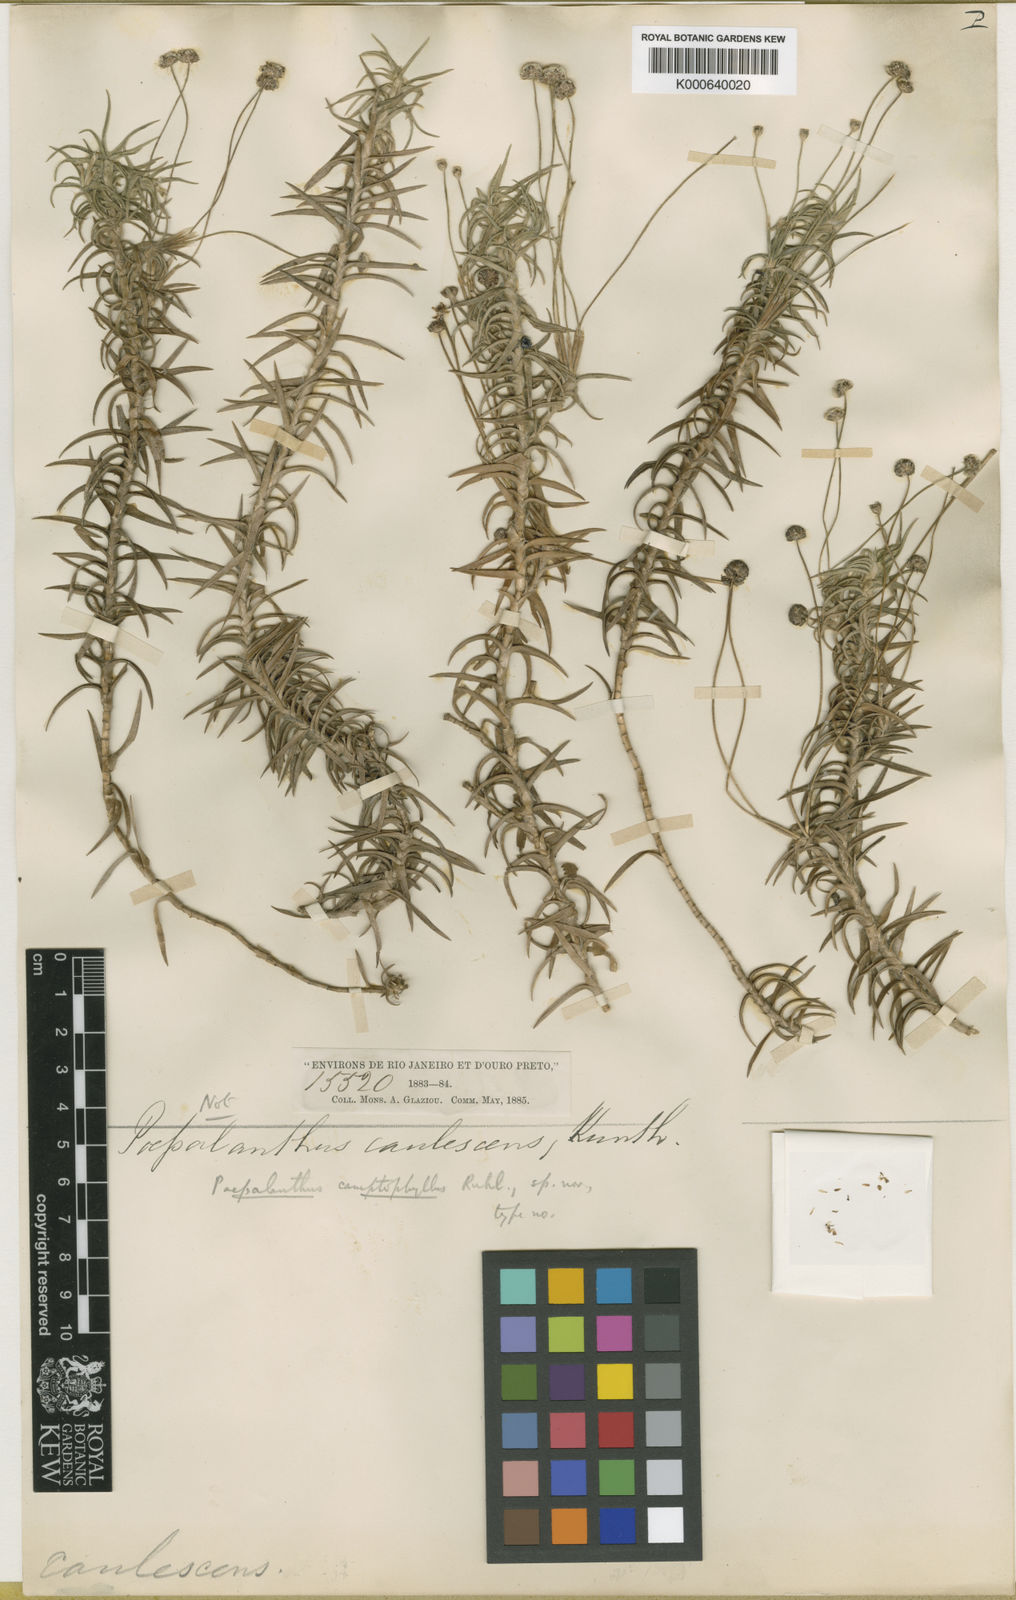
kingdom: Plantae
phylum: Tracheophyta
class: Liliopsida
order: Poales
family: Eriocaulaceae
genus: Paepalanthus
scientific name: Paepalanthus camptophyllus
